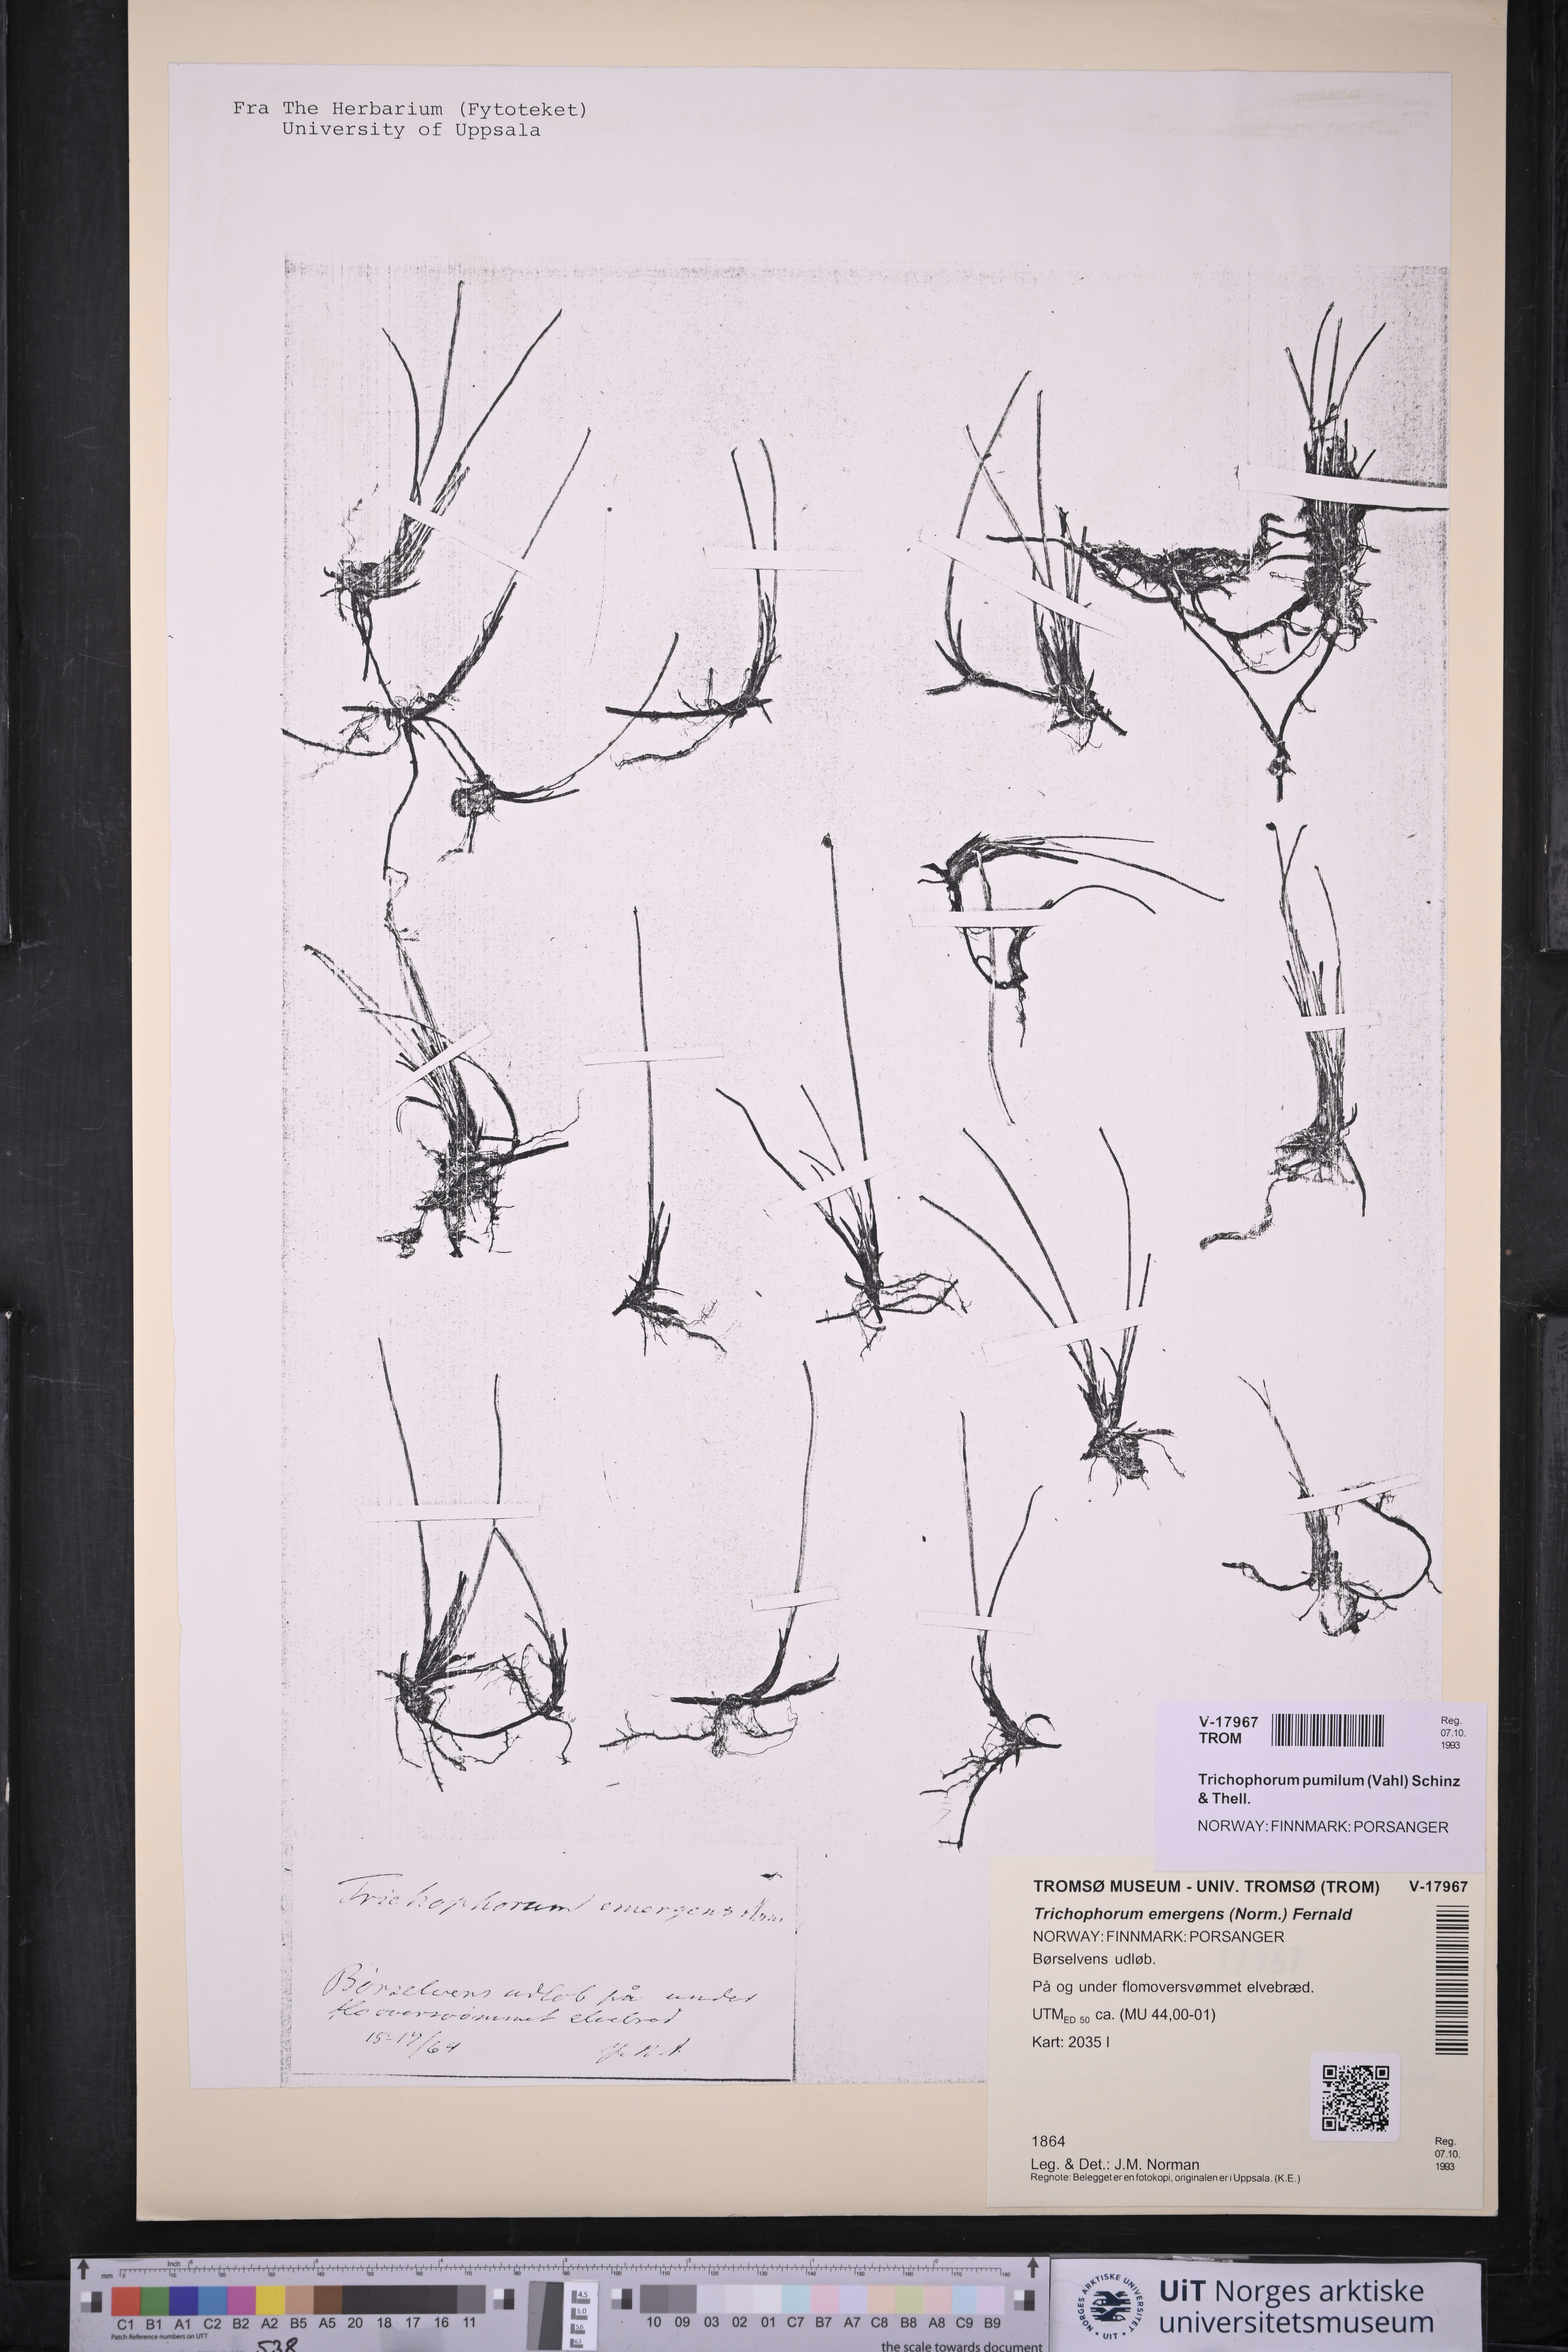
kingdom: Plantae
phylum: Tracheophyta
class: Liliopsida
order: Poales
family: Cyperaceae
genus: Trichophorum
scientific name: Trichophorum pumilum
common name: Rolland's bulrush
